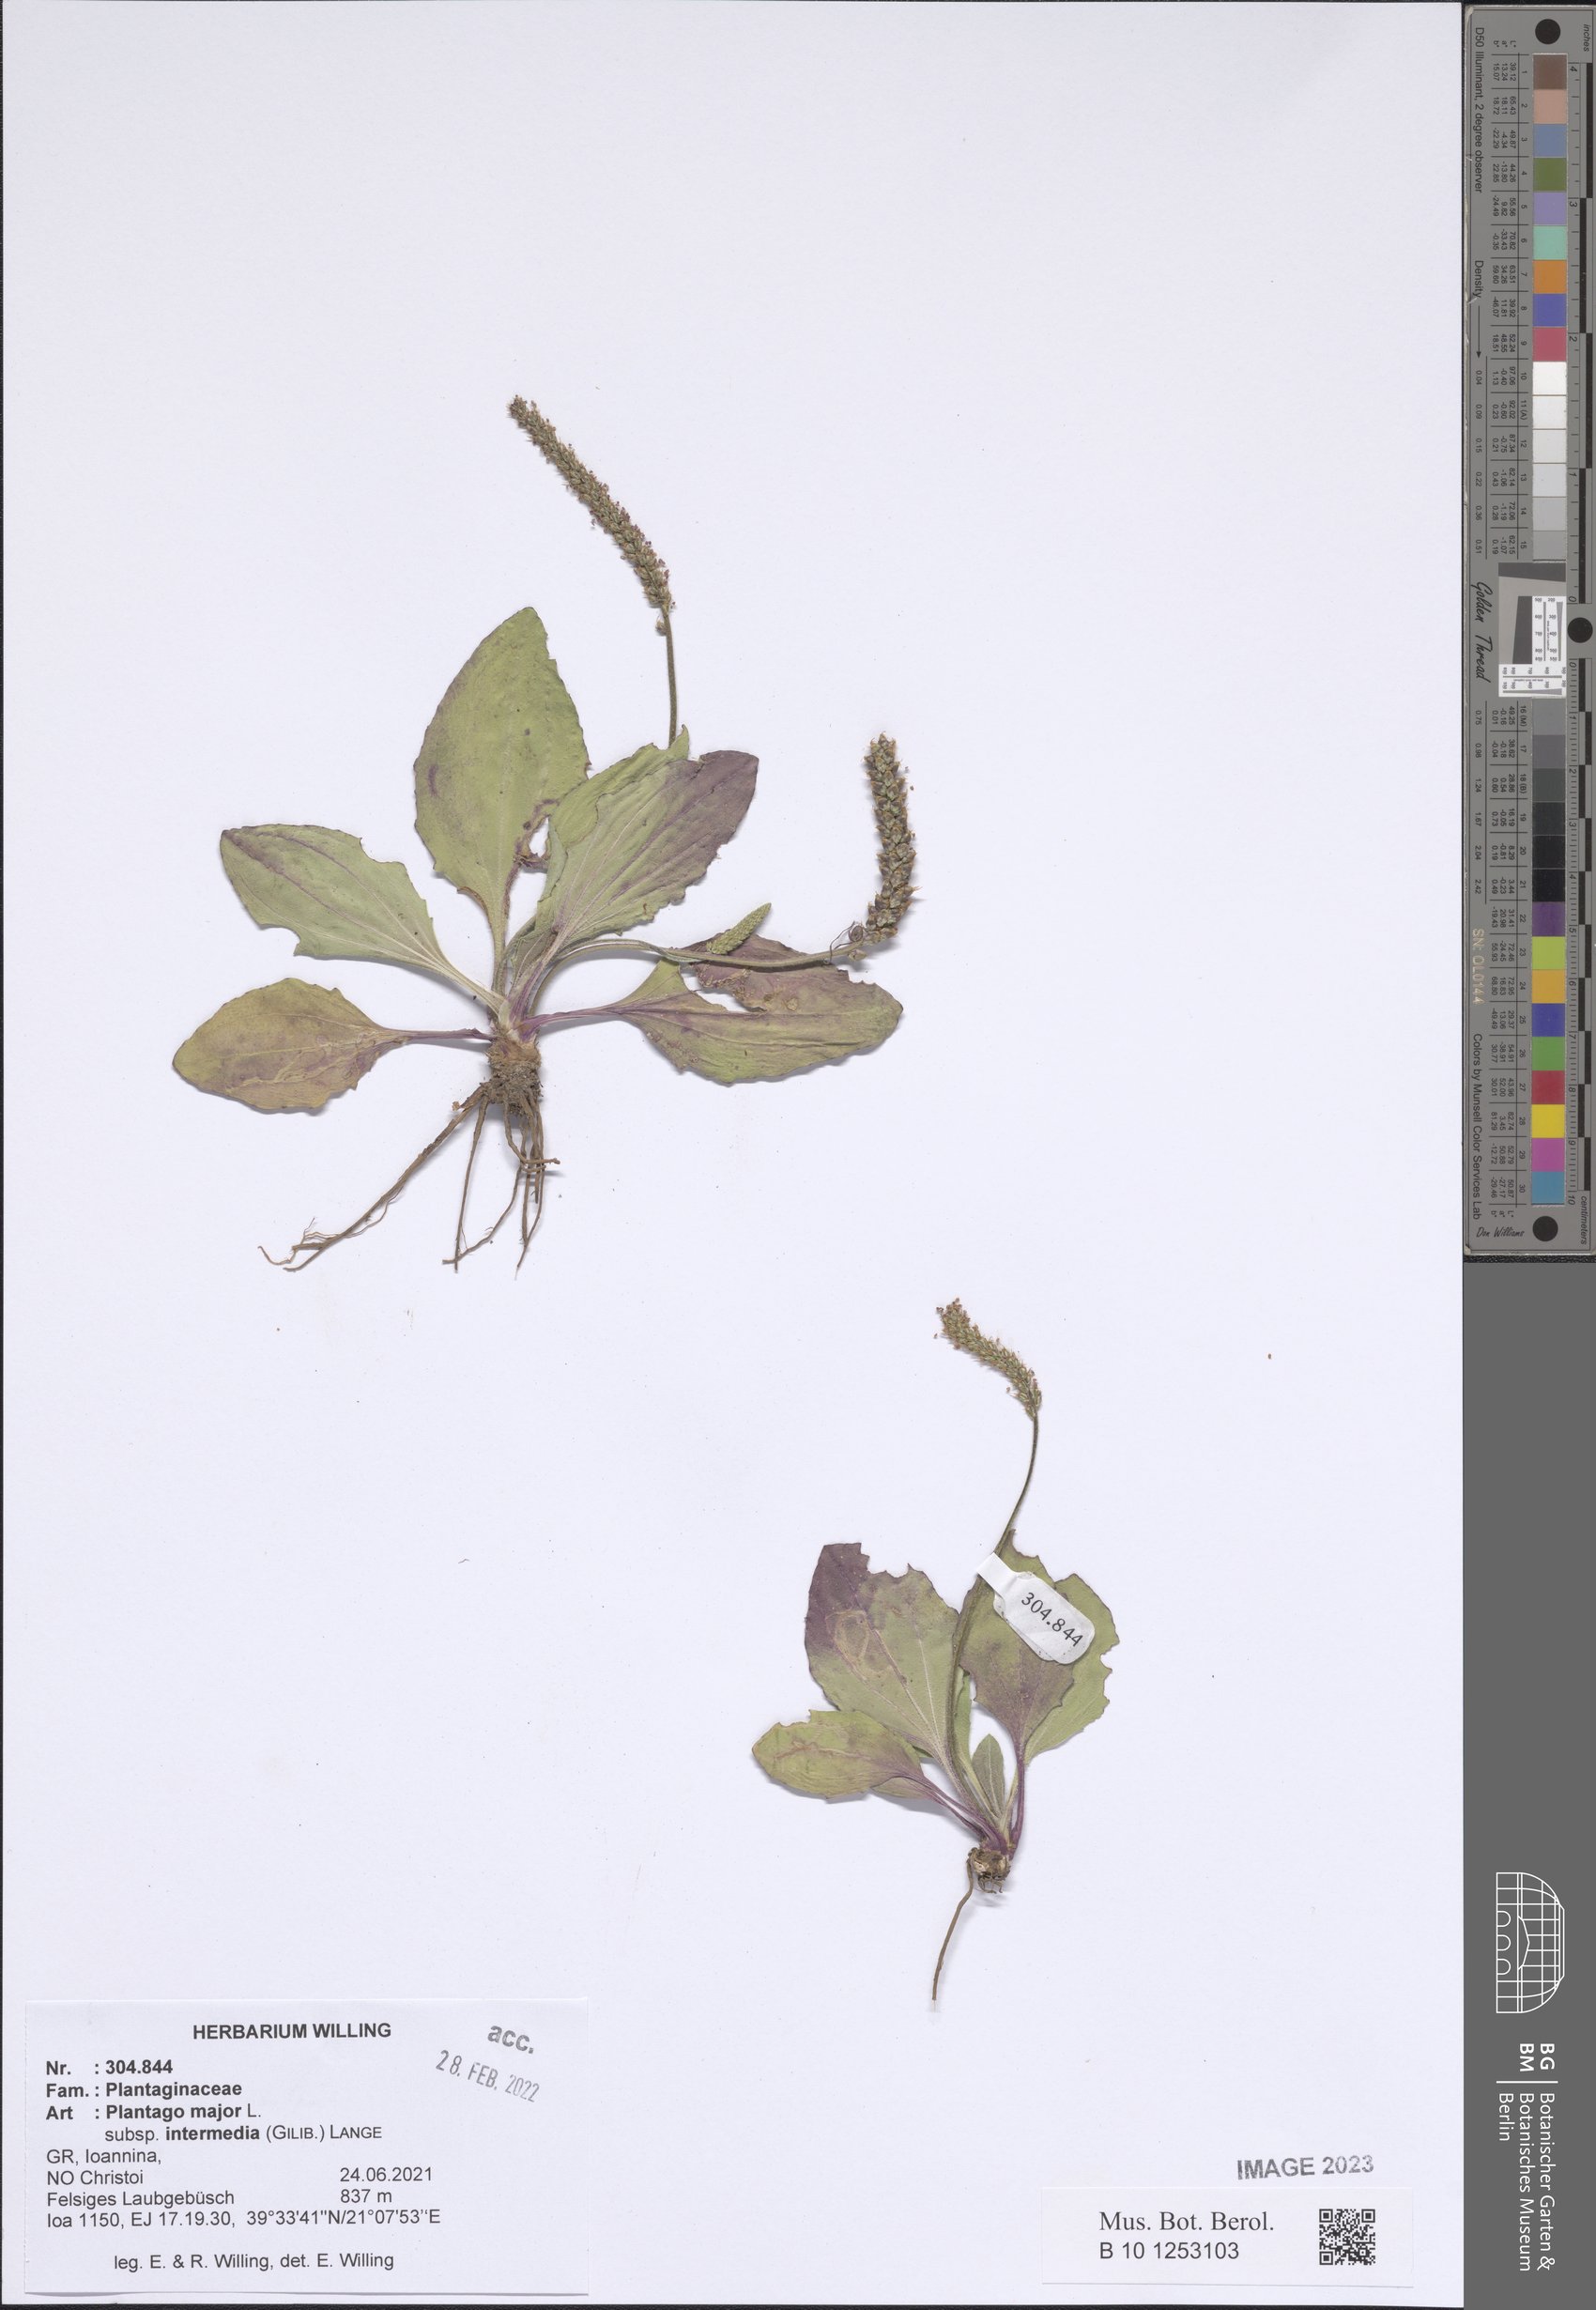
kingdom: Plantae
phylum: Tracheophyta
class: Magnoliopsida
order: Lamiales
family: Plantaginaceae
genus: Plantago
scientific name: Plantago uliginosa
